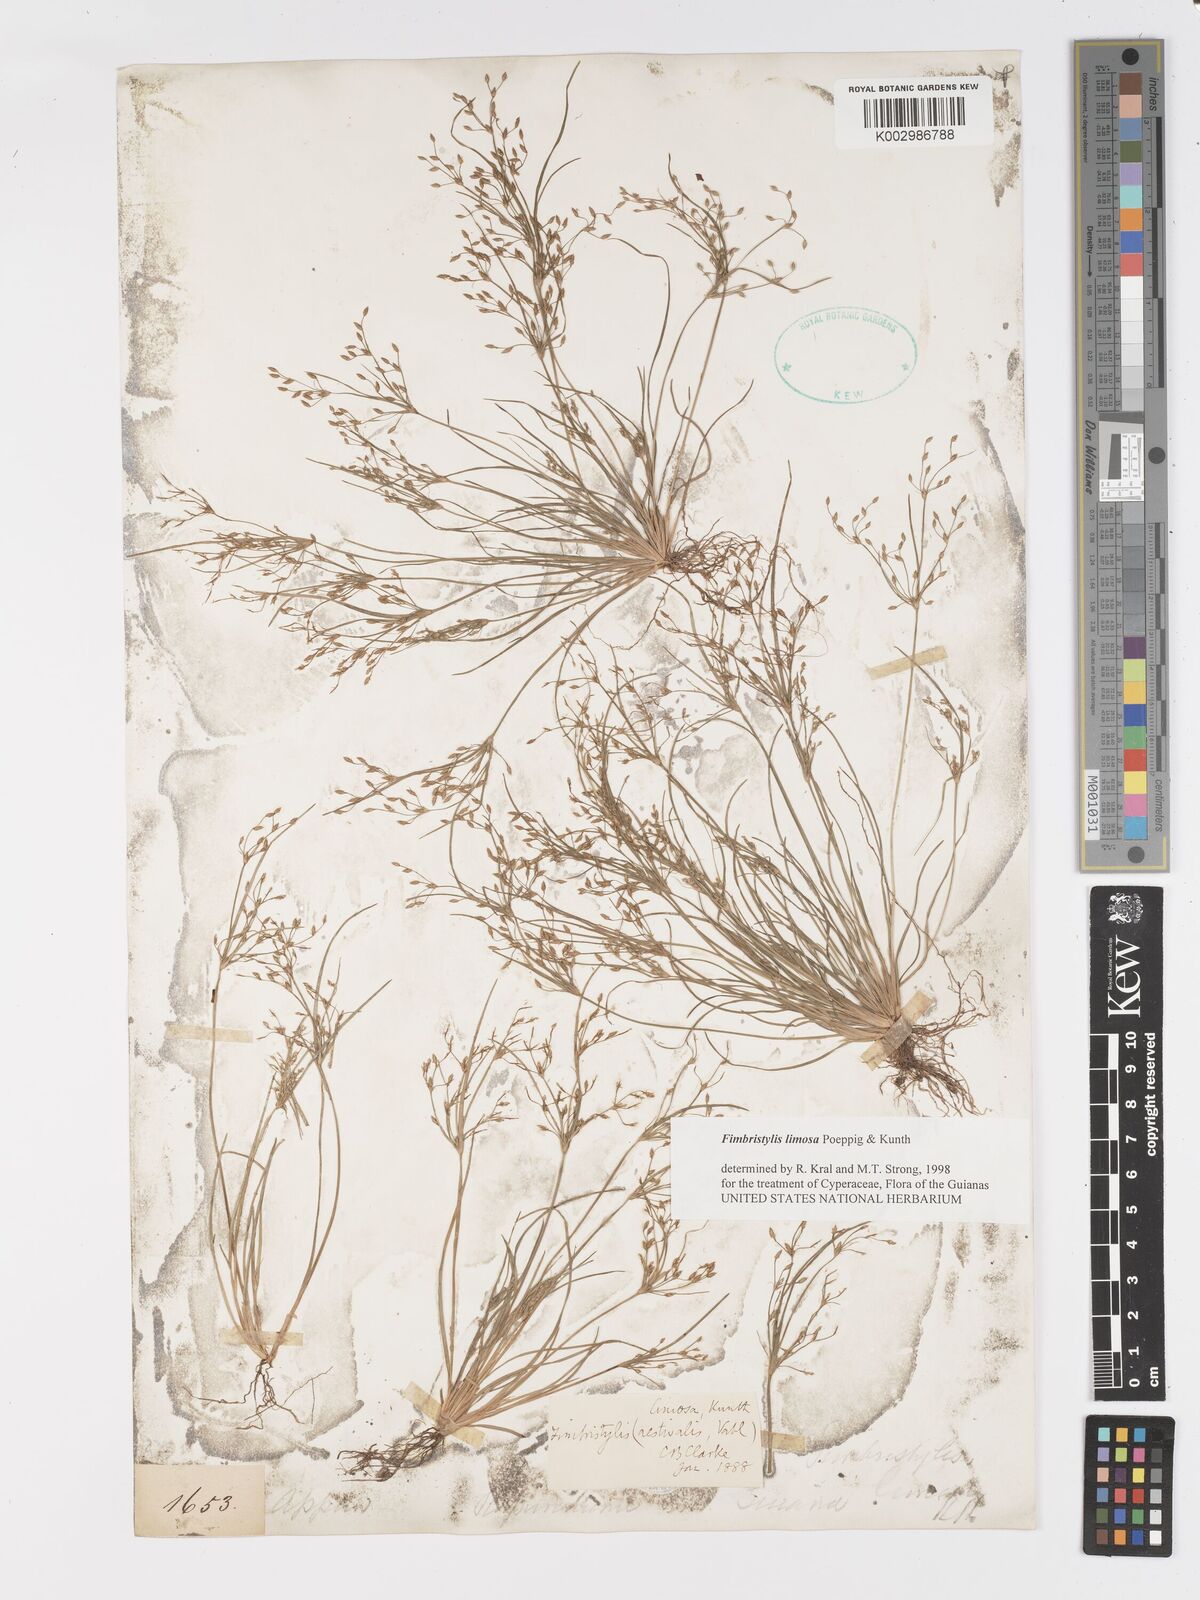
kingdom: Plantae
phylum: Tracheophyta
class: Liliopsida
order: Poales
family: Cyperaceae
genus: Fimbristylis
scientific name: Fimbristylis limosa
